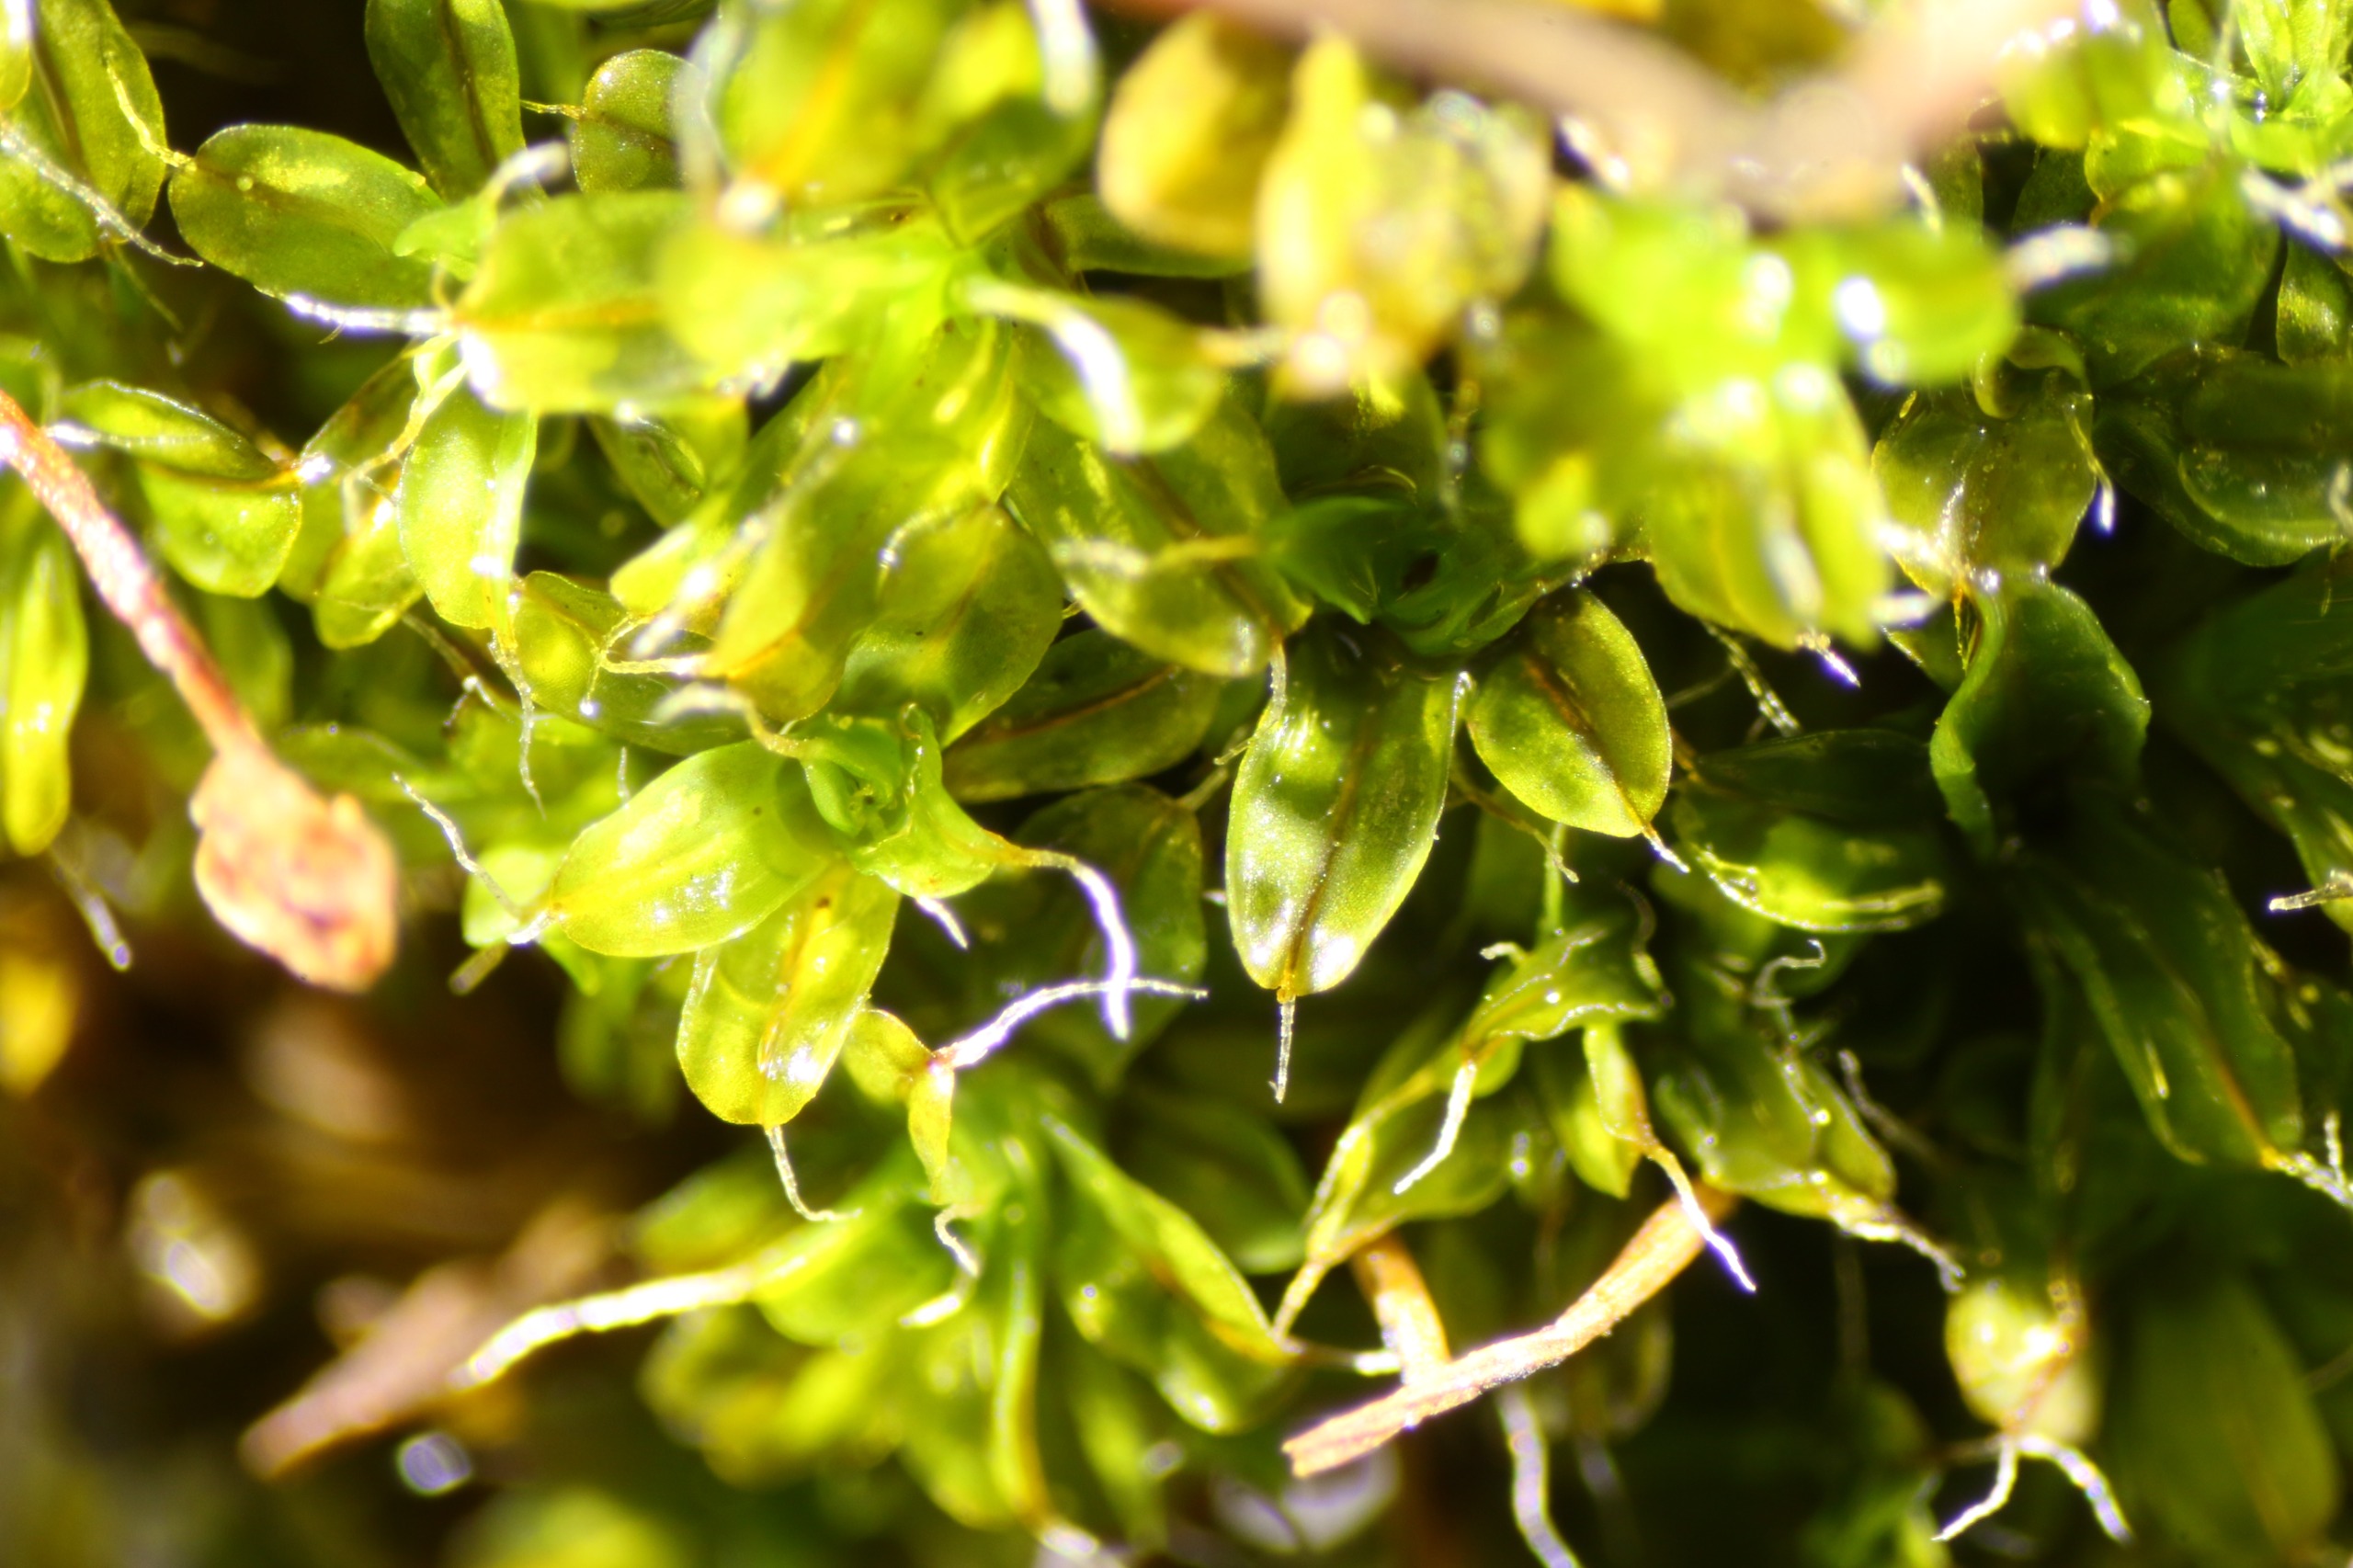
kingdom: Plantae
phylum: Bryophyta
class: Bryopsida
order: Pottiales
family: Pottiaceae
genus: Syntrichia
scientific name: Syntrichia virescens
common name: Grøn hårstjerne
